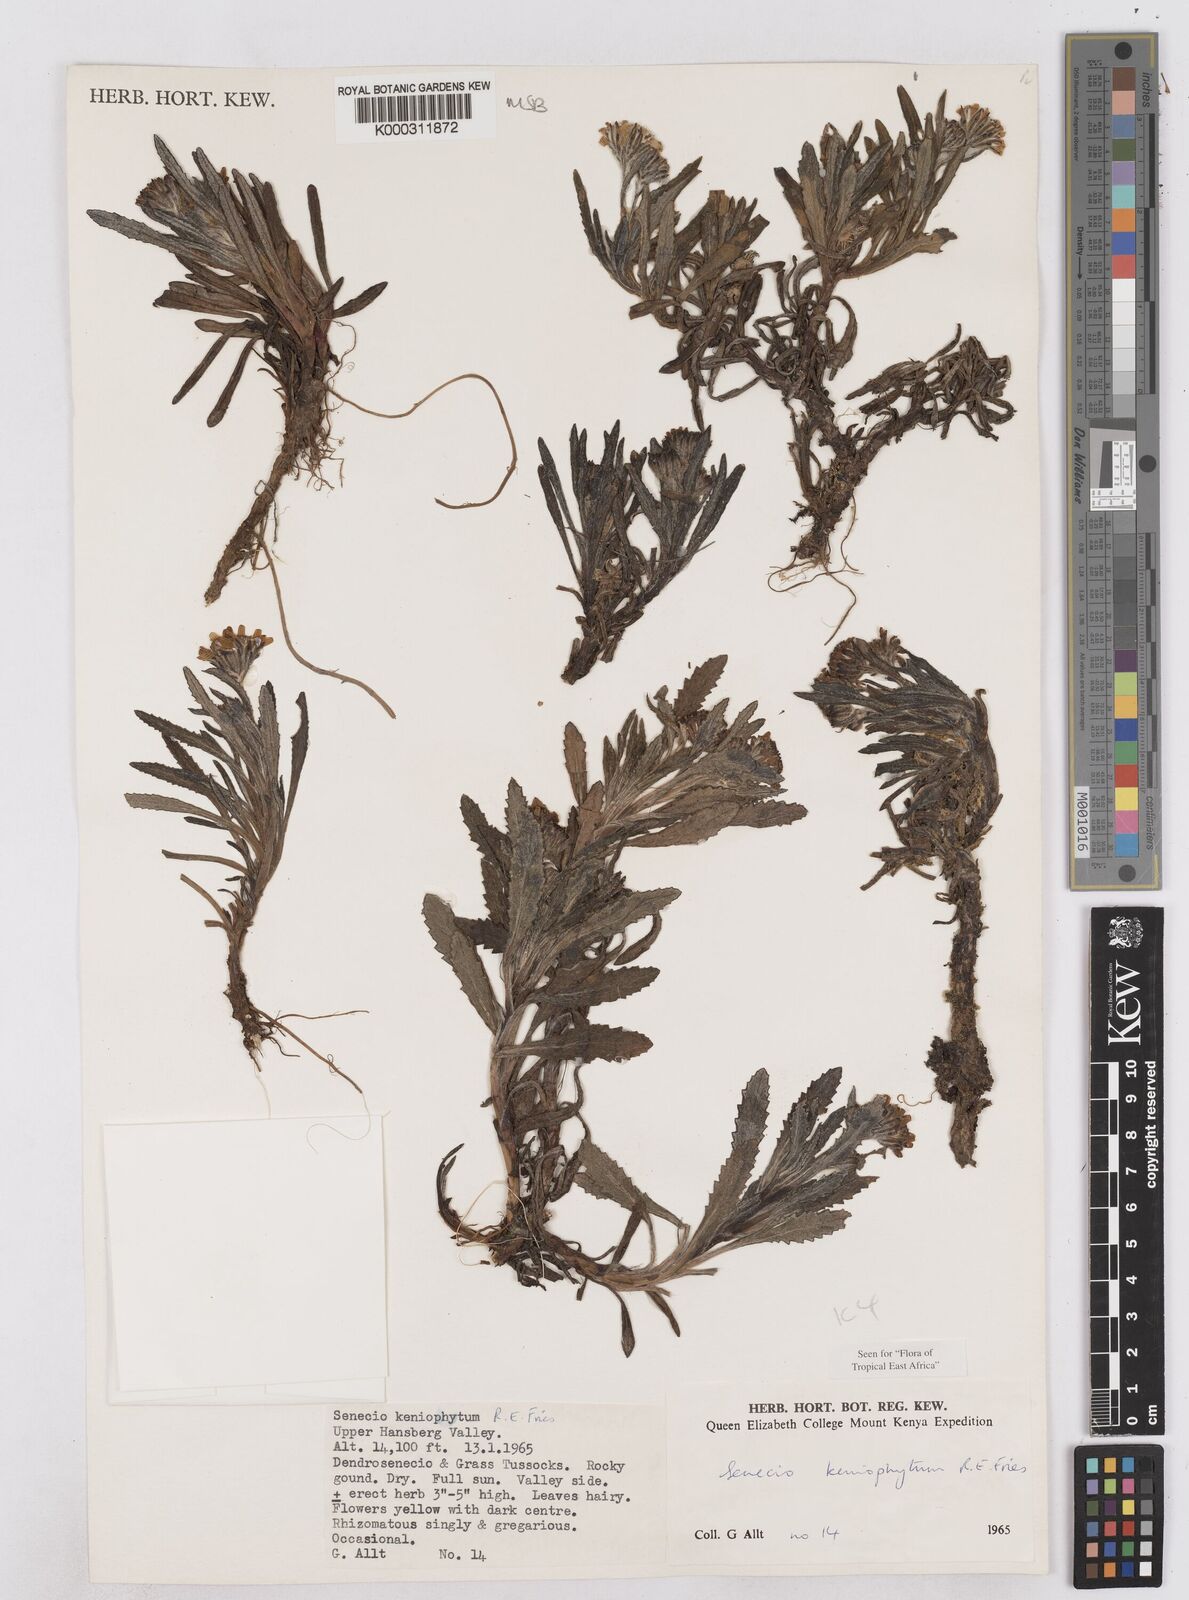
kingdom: Plantae
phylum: Tracheophyta
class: Magnoliopsida
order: Asterales
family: Asteraceae
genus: Senecio
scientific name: Senecio keniophytum
